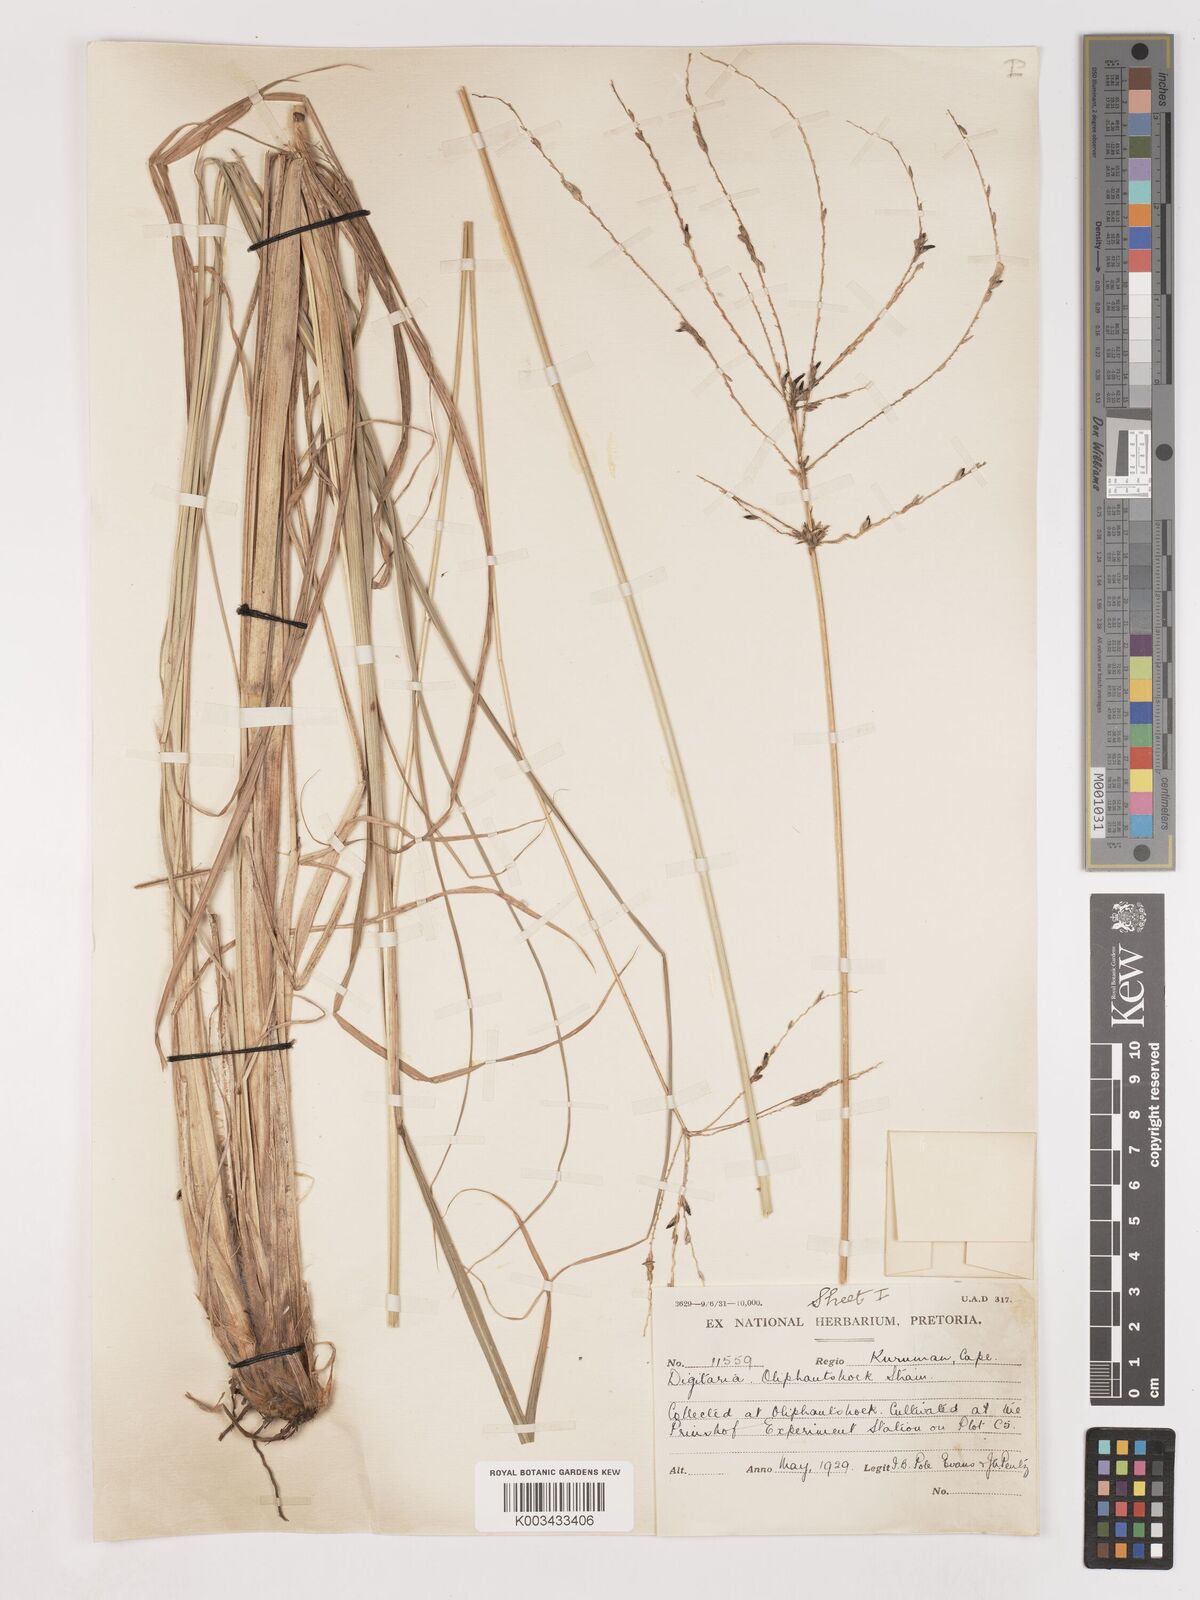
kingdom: Plantae
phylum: Tracheophyta
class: Liliopsida
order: Poales
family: Poaceae
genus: Digitaria
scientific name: Digitaria eriantha
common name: Digitgrass
